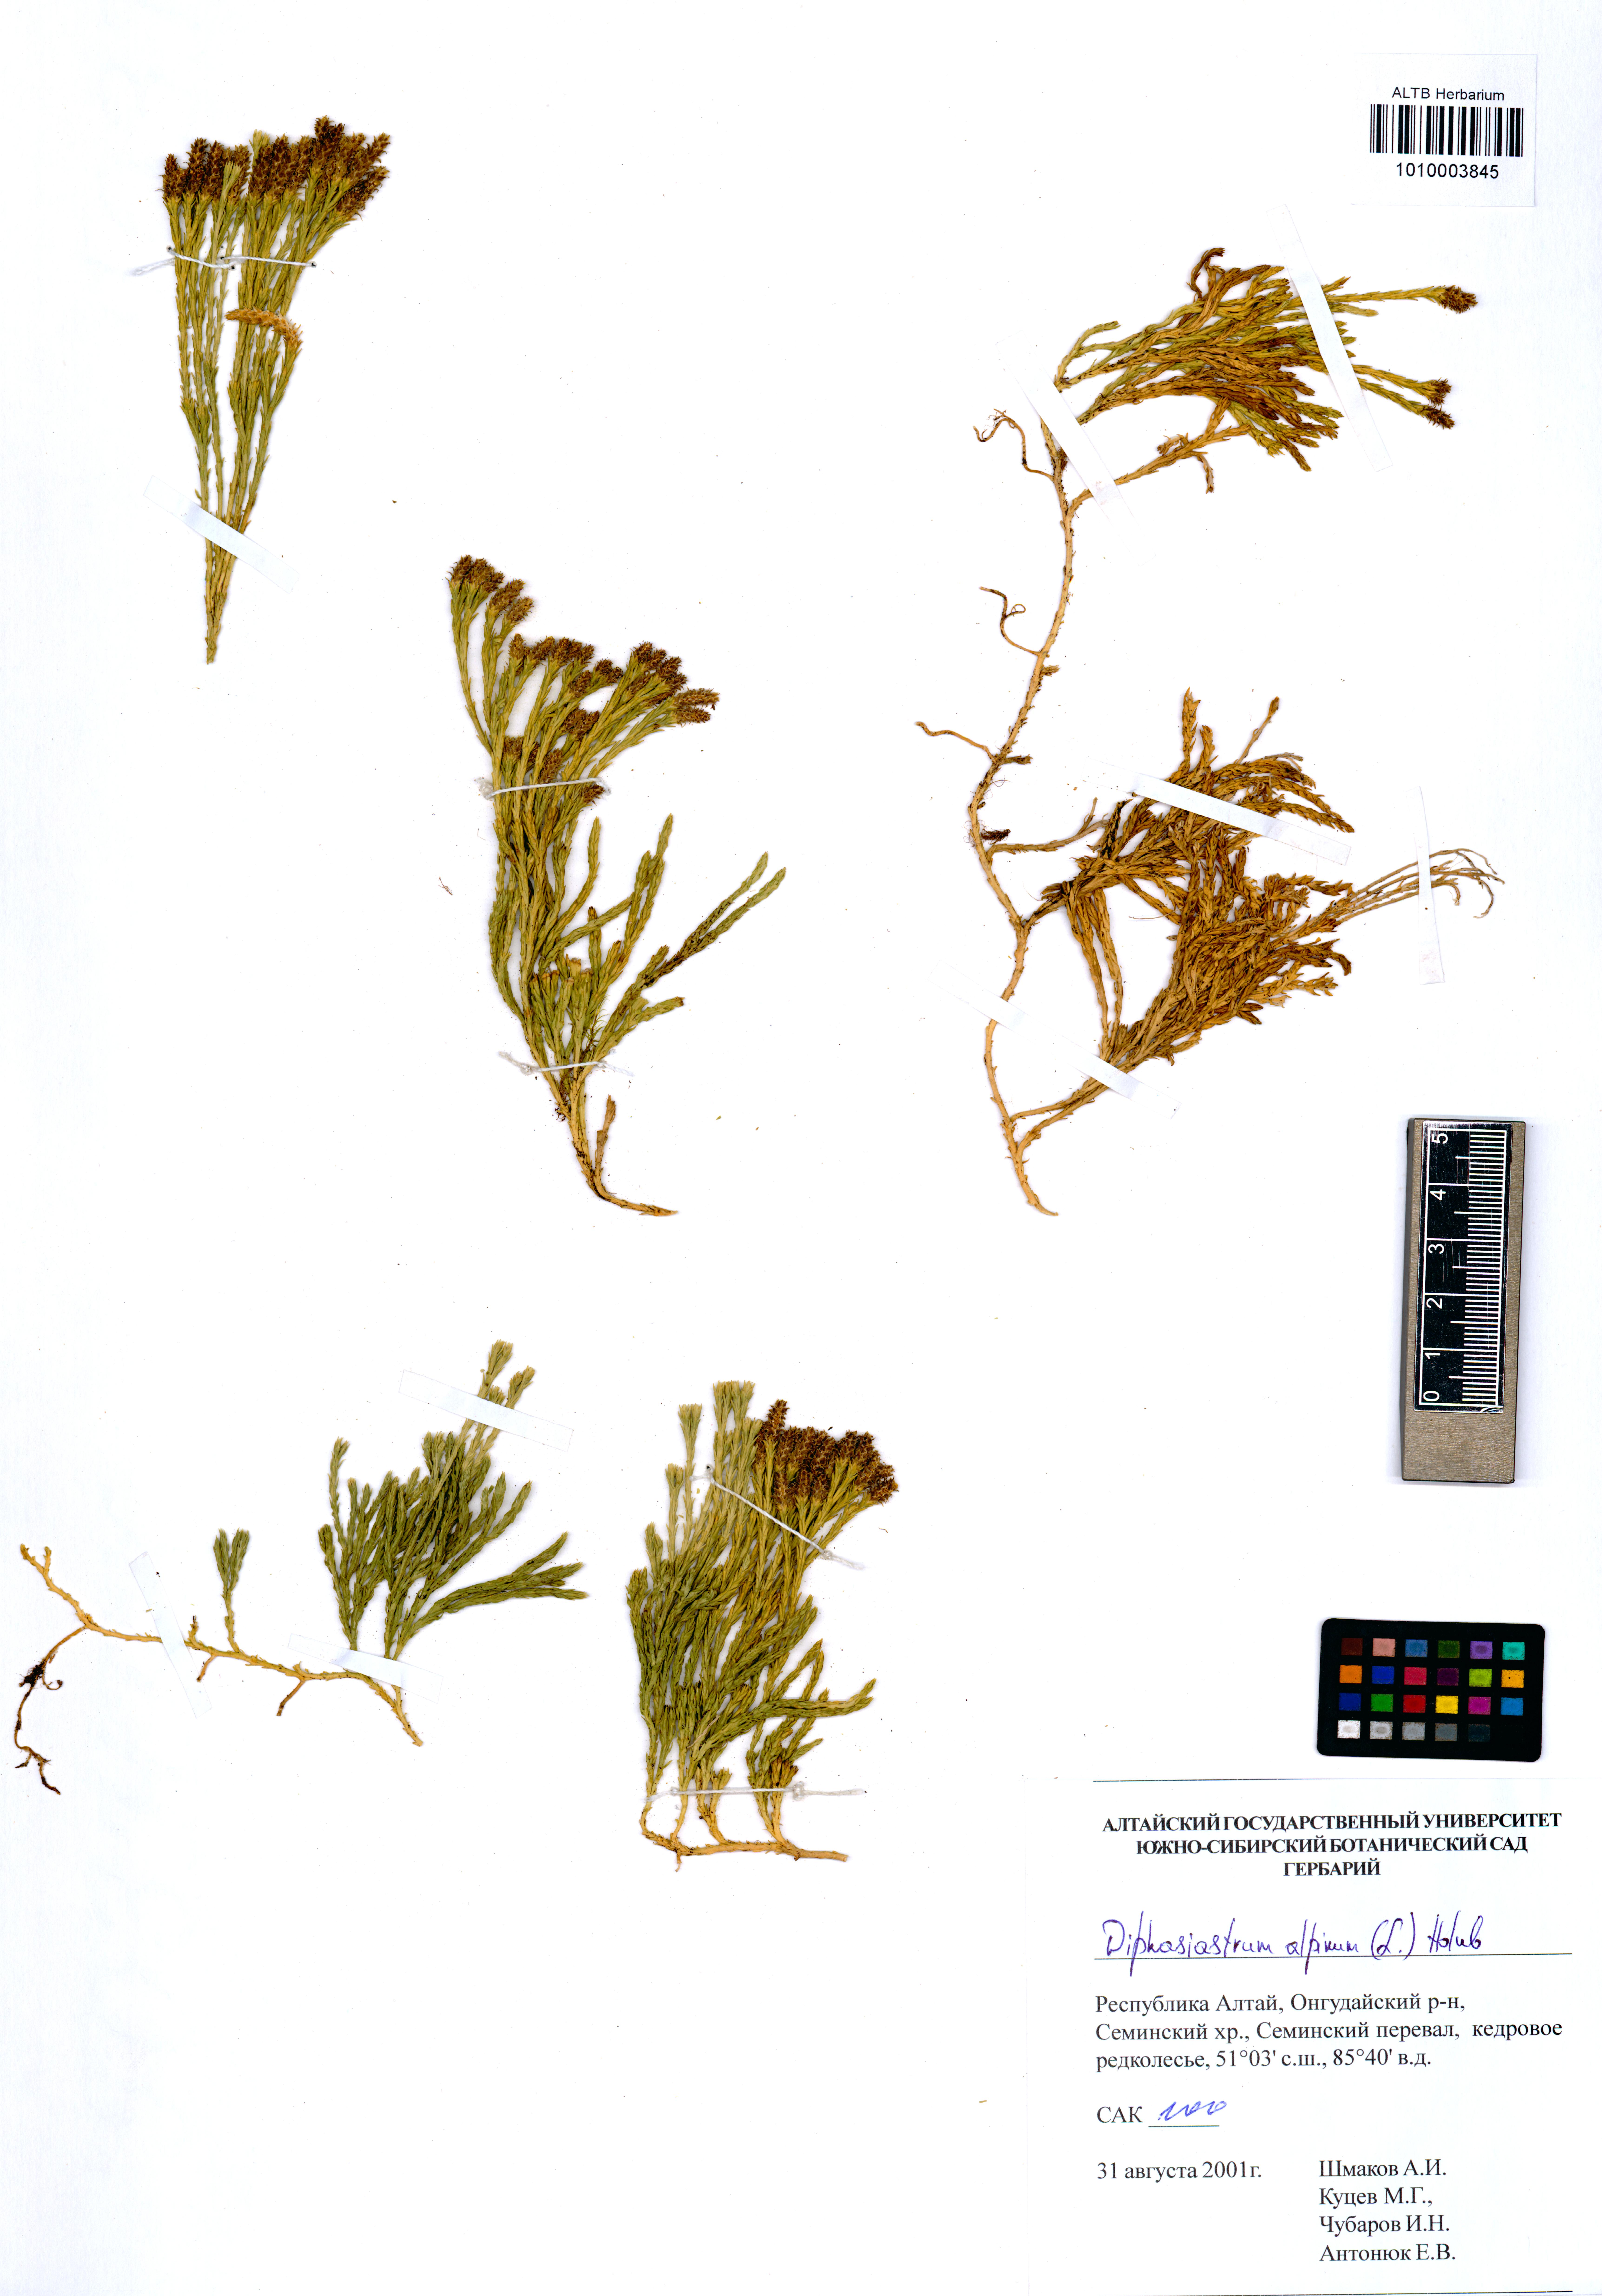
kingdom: Plantae
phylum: Tracheophyta
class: Lycopodiopsida
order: Lycopodiales
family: Lycopodiaceae
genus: Diphasiastrum
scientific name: Diphasiastrum alpinum
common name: Alpine clubmoss
